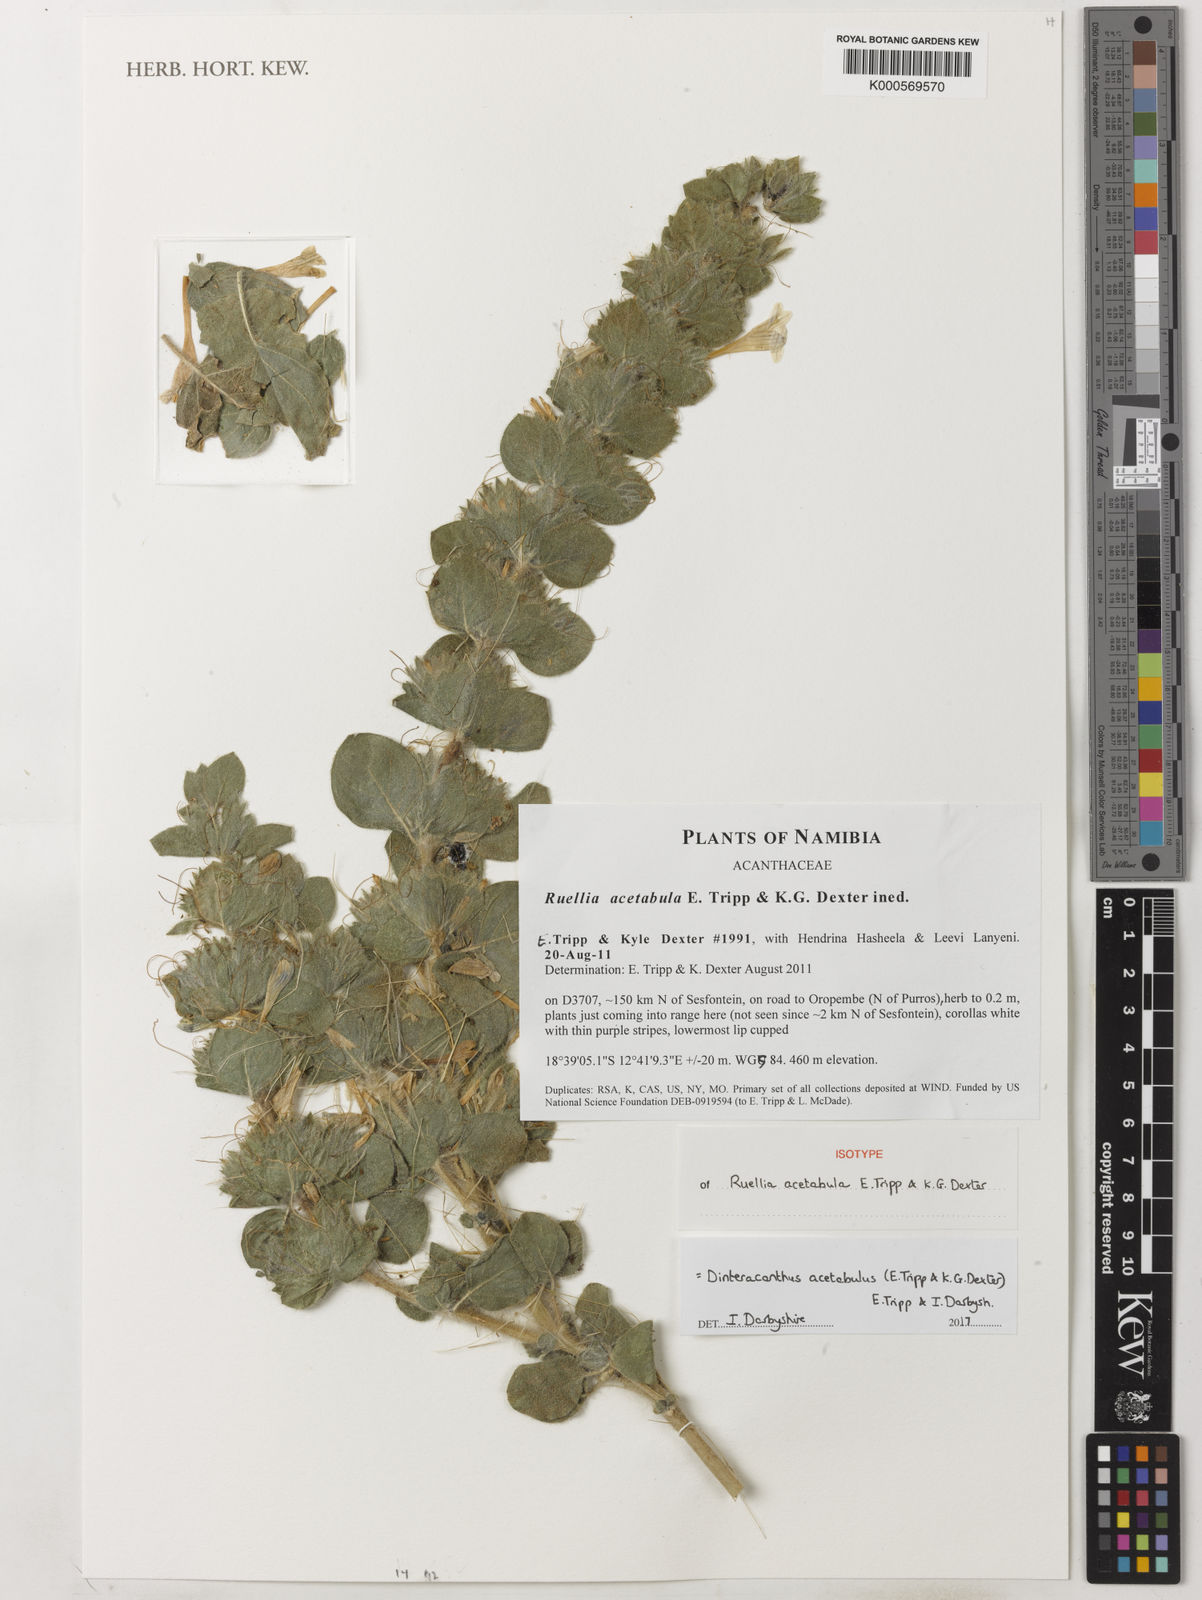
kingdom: Plantae
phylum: Tracheophyta
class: Magnoliopsida
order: Lamiales
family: Acanthaceae
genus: Dinteracanthus
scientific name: Dinteracanthus acetabulus
